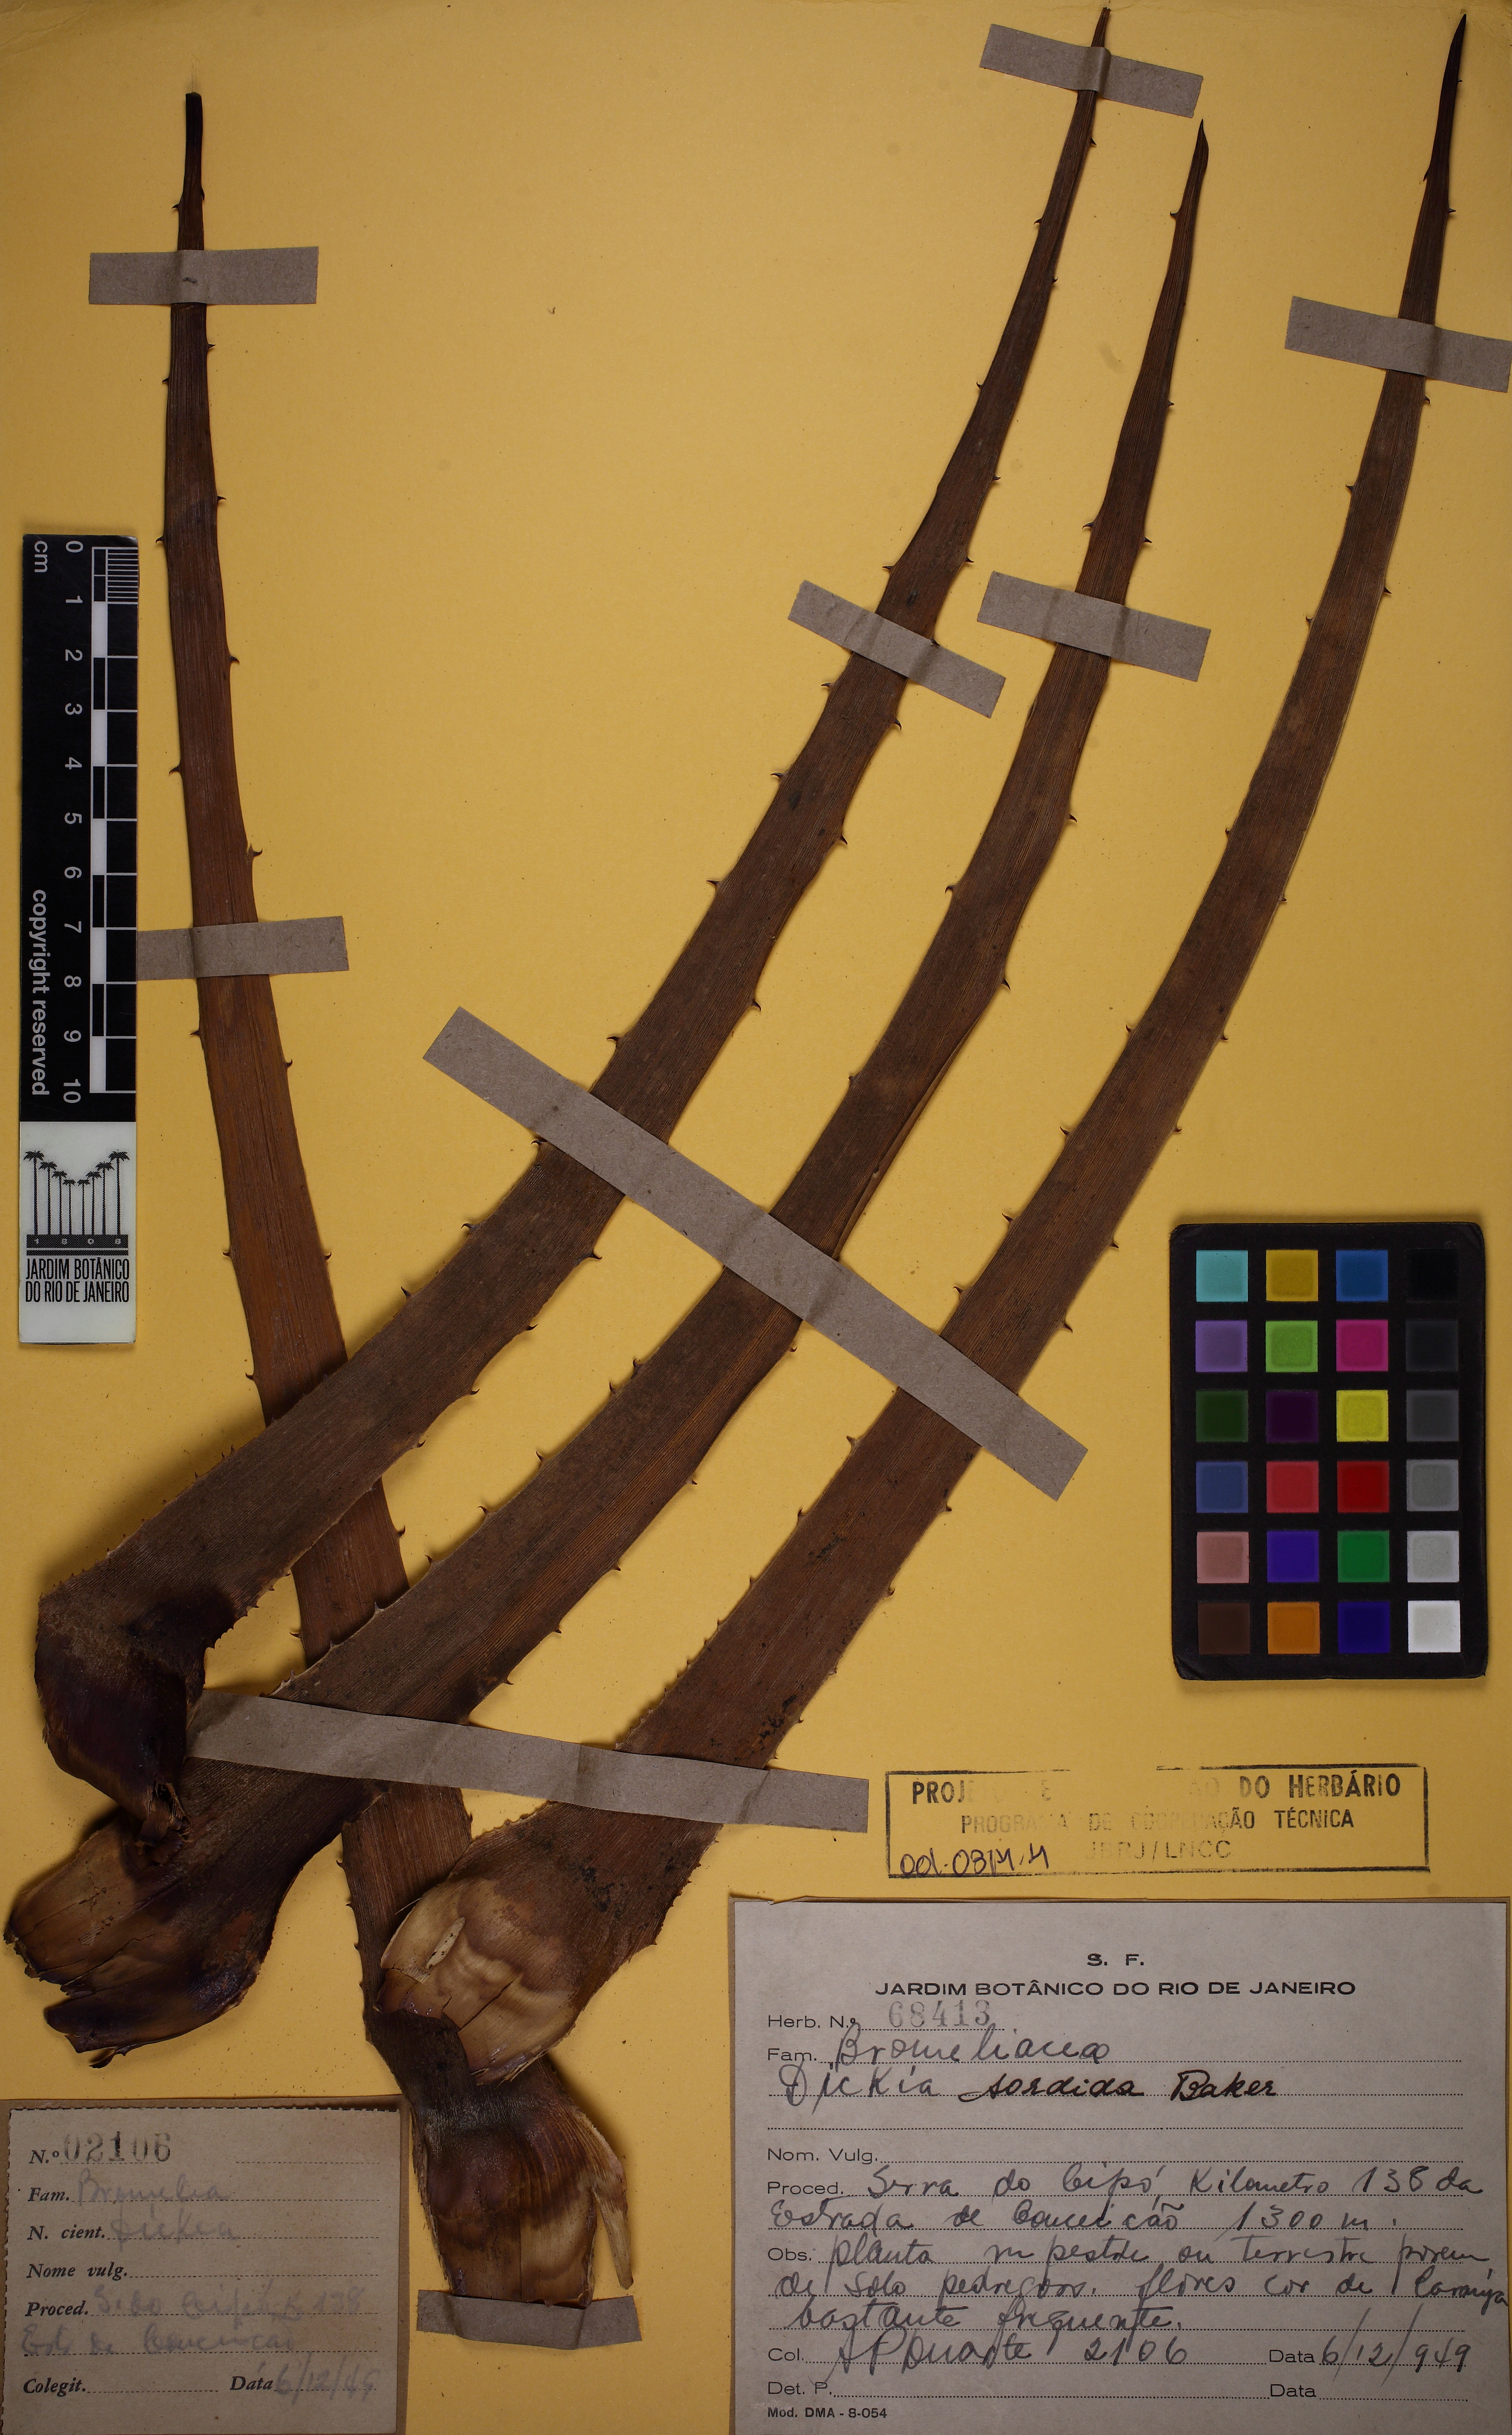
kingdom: Plantae
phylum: Tracheophyta
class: Liliopsida
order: Poales
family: Bromeliaceae
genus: Dyckia
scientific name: Dyckia sordida
